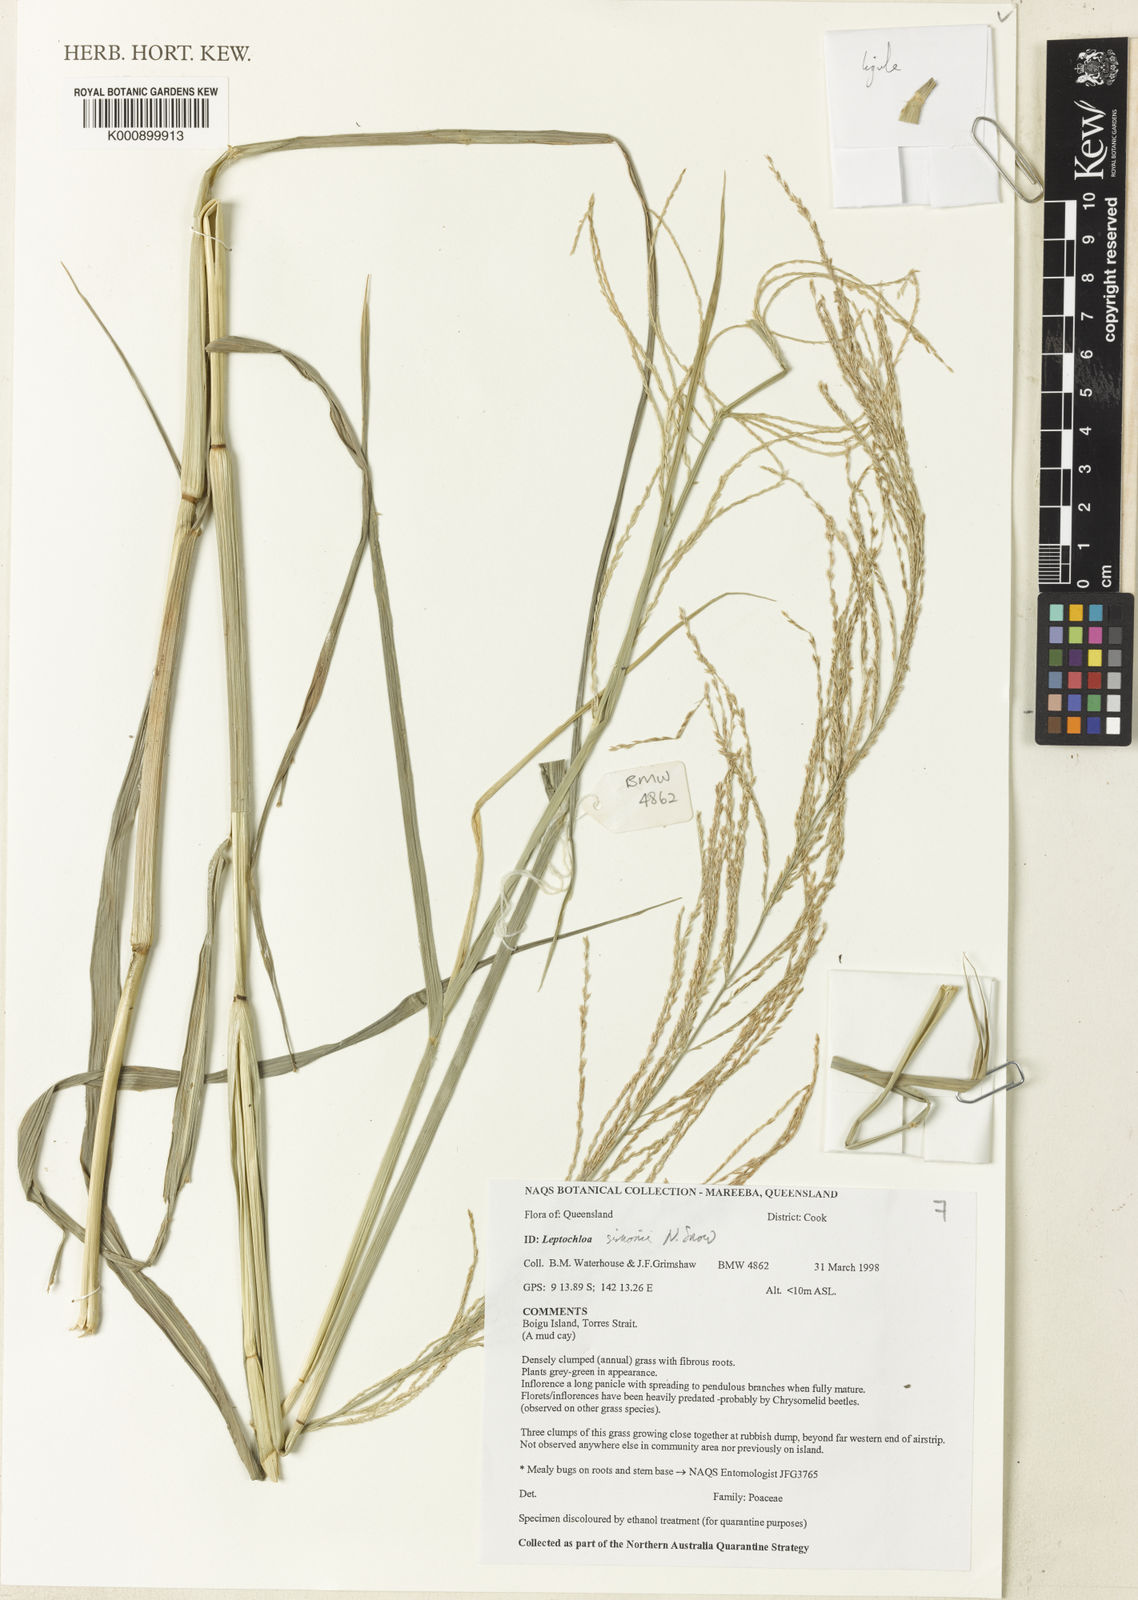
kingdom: Plantae
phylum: Tracheophyta
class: Liliopsida
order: Poales
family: Poaceae
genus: Leptochloa
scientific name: Leptochloa simoniana
